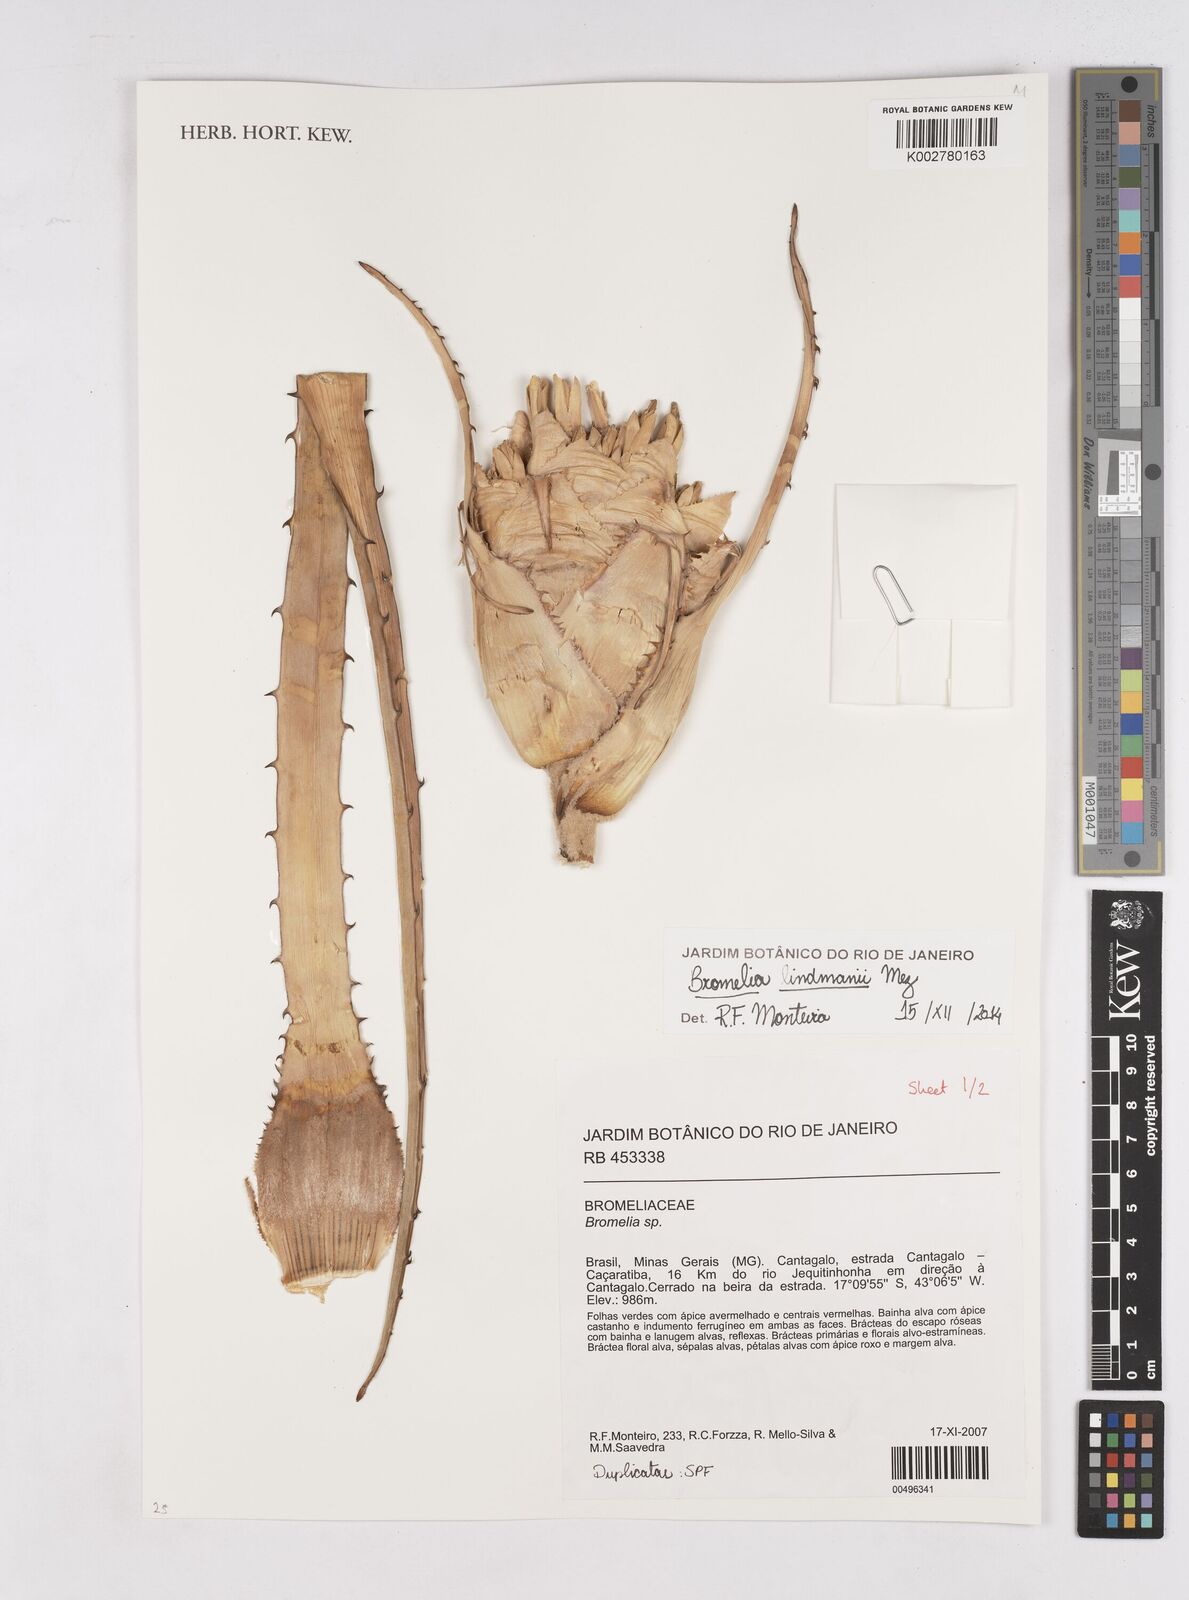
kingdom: Plantae
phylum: Tracheophyta
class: Liliopsida
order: Poales
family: Bromeliaceae
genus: Bromelia
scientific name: Bromelia serra
